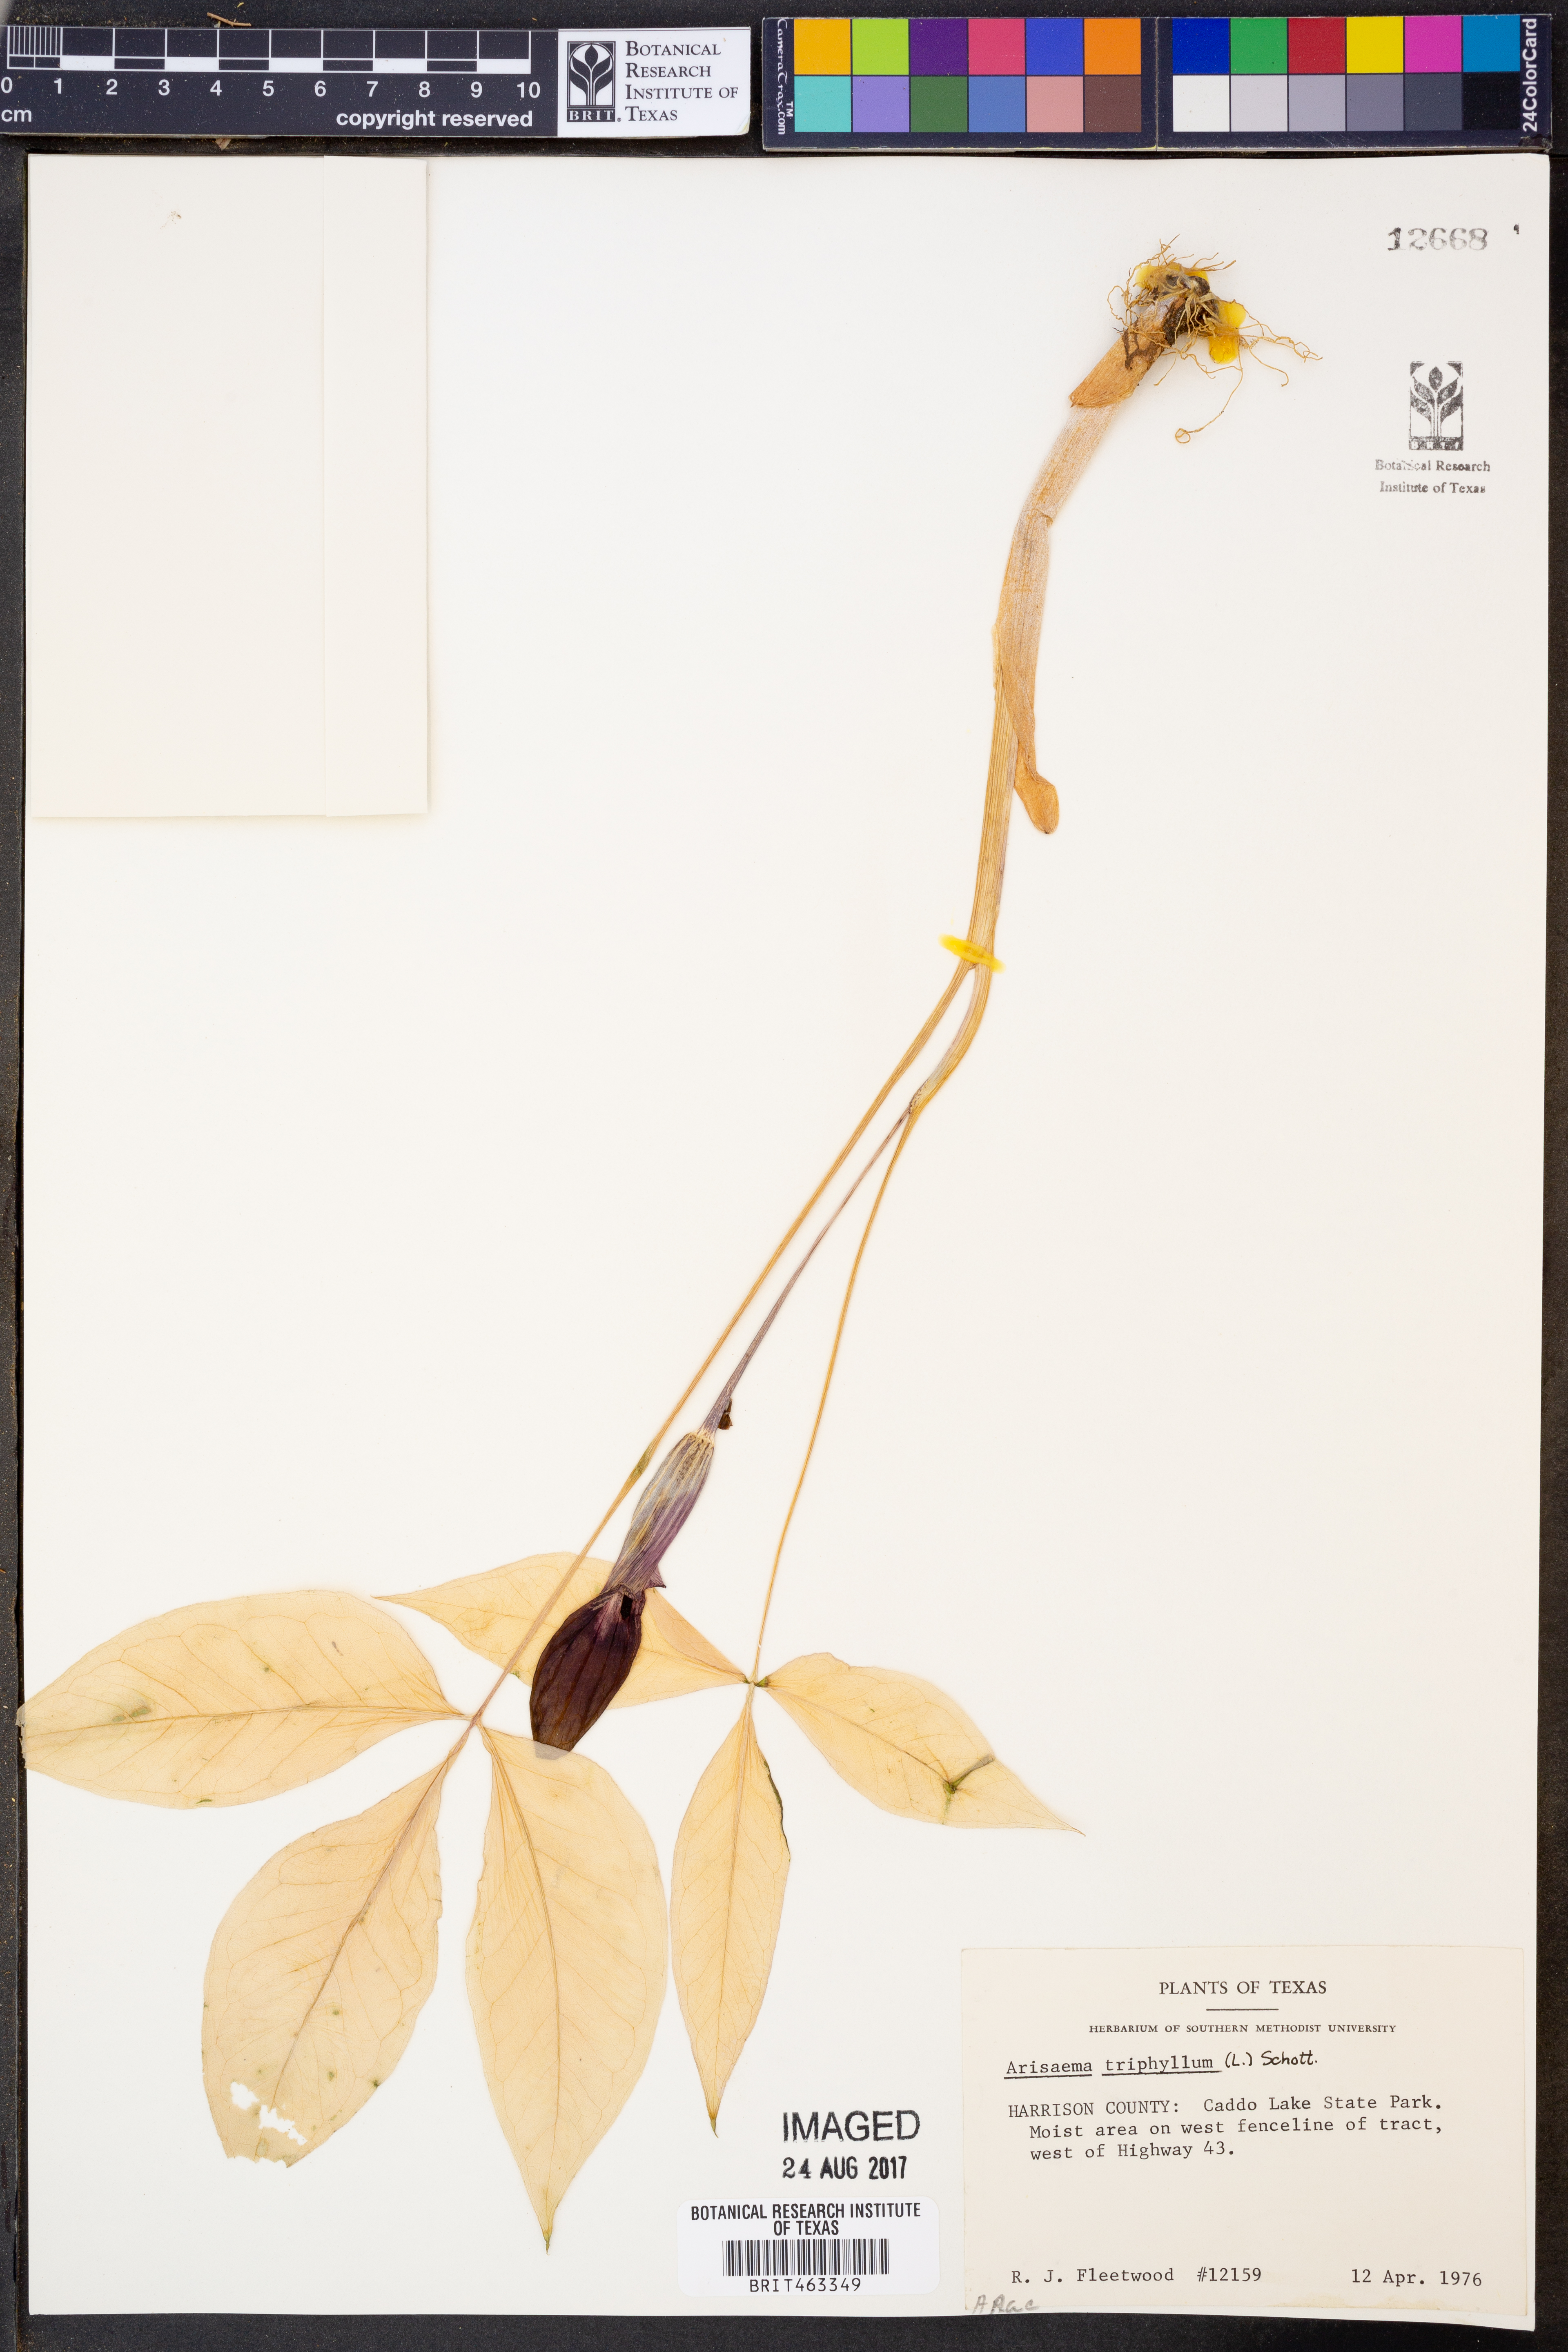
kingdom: Plantae
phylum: Tracheophyta
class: Liliopsida
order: Alismatales
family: Araceae
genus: Arisaema
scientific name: Arisaema triphyllum
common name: Jack-in-the-pulpit
